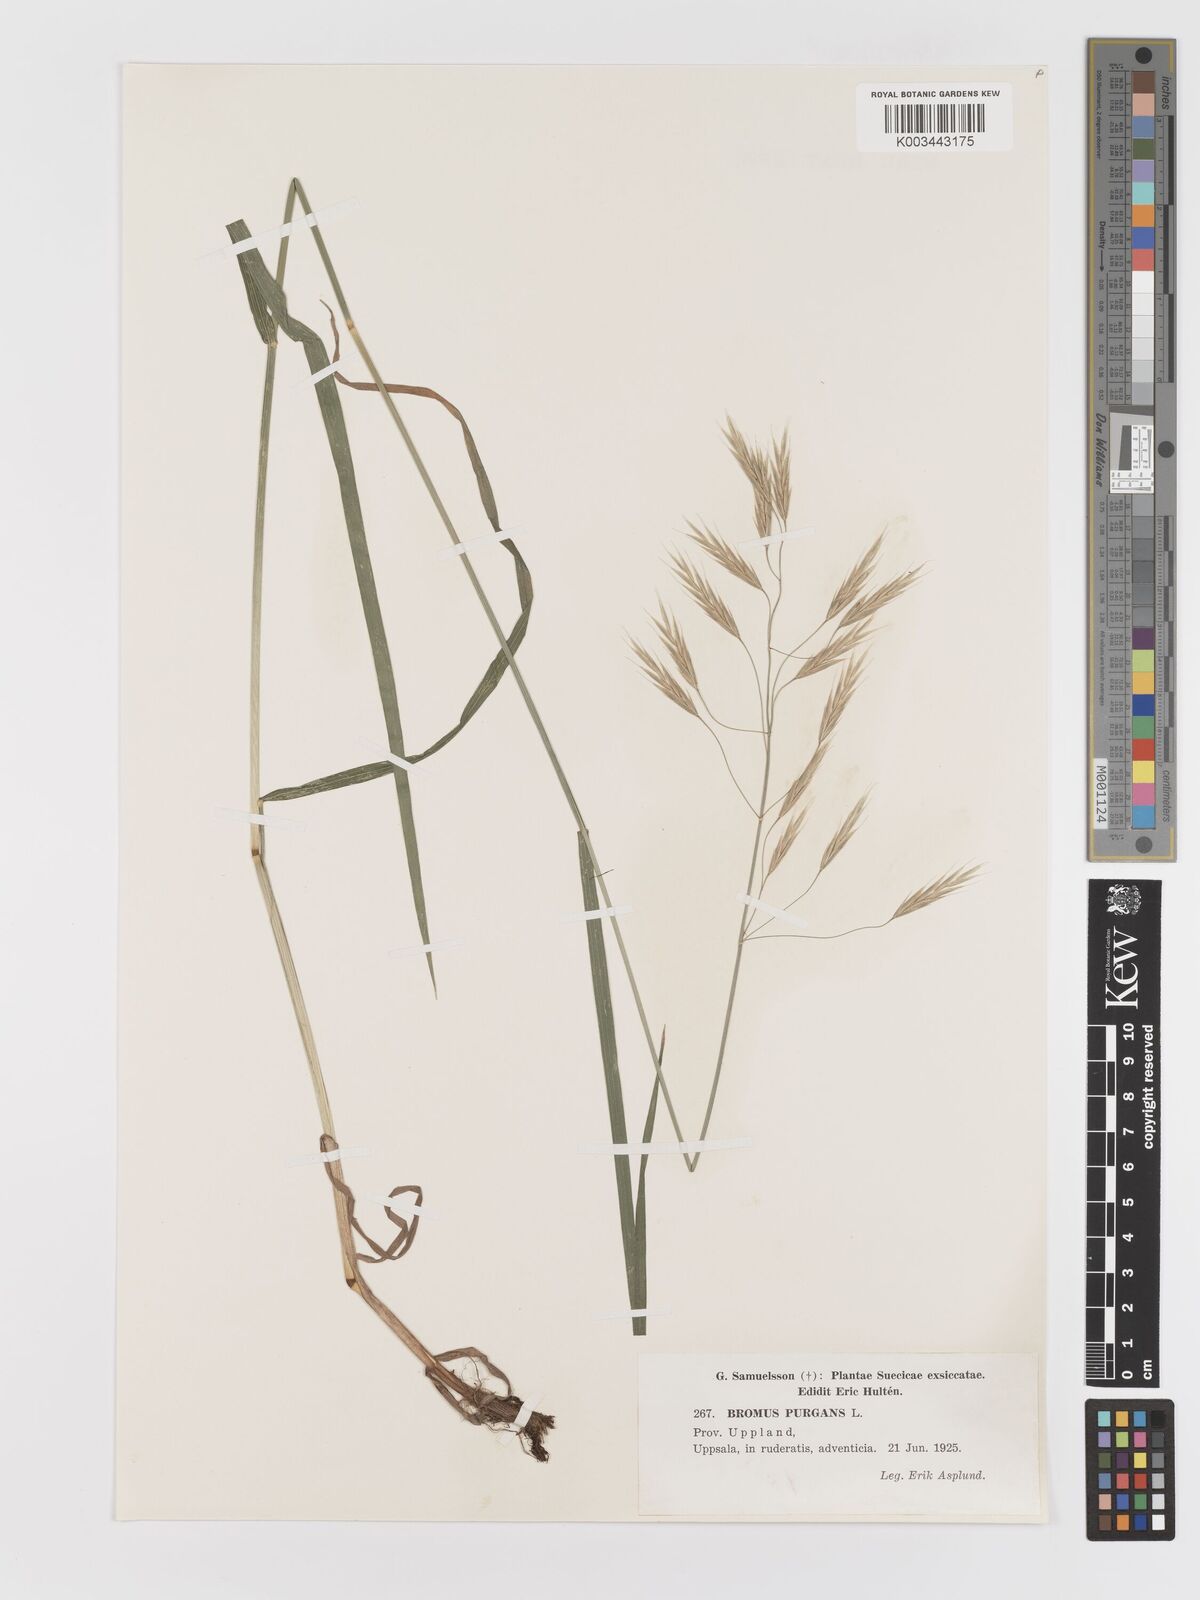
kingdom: Plantae
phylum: Tracheophyta
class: Liliopsida
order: Poales
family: Poaceae
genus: Bromus
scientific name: Bromus kalmii
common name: Kalm brome
